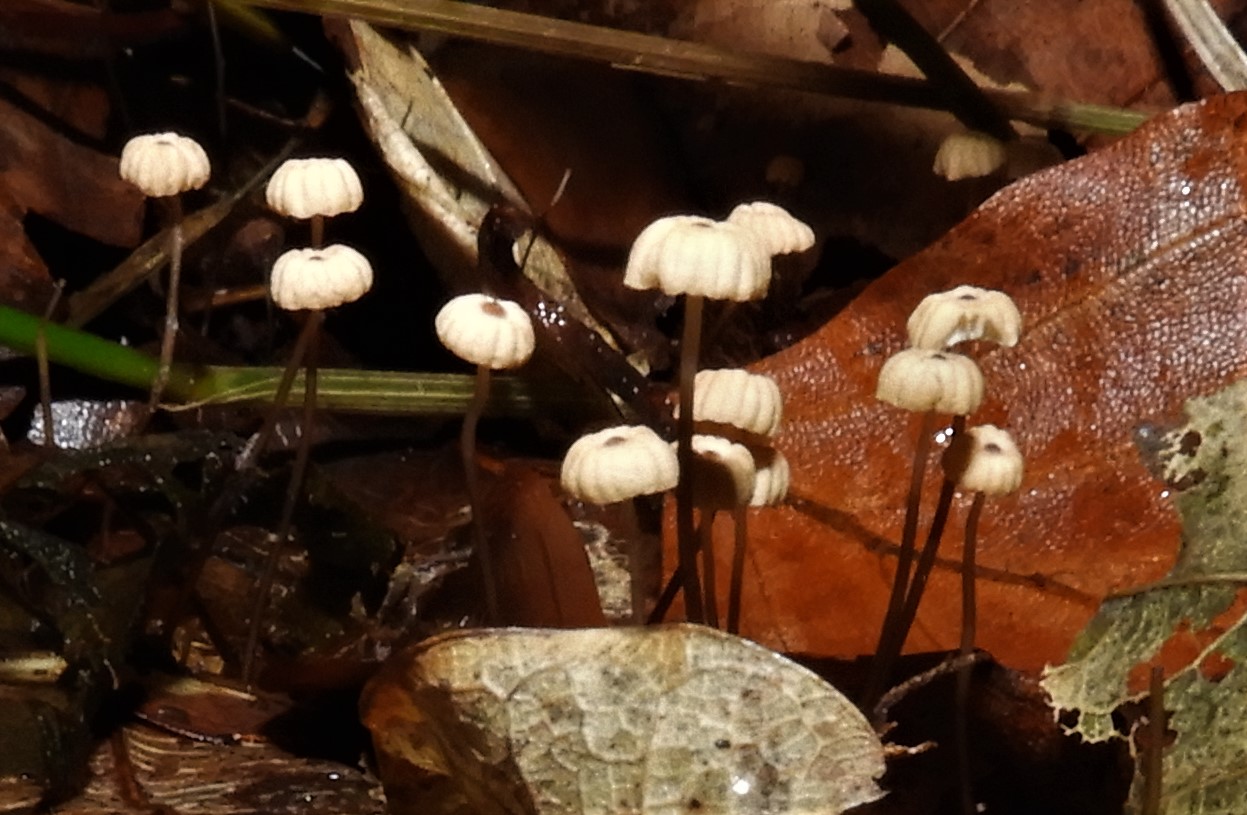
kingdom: Fungi
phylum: Basidiomycota
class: Agaricomycetes
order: Agaricales
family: Marasmiaceae
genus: Marasmius
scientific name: Marasmius bulliardii
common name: furet bruskhat
